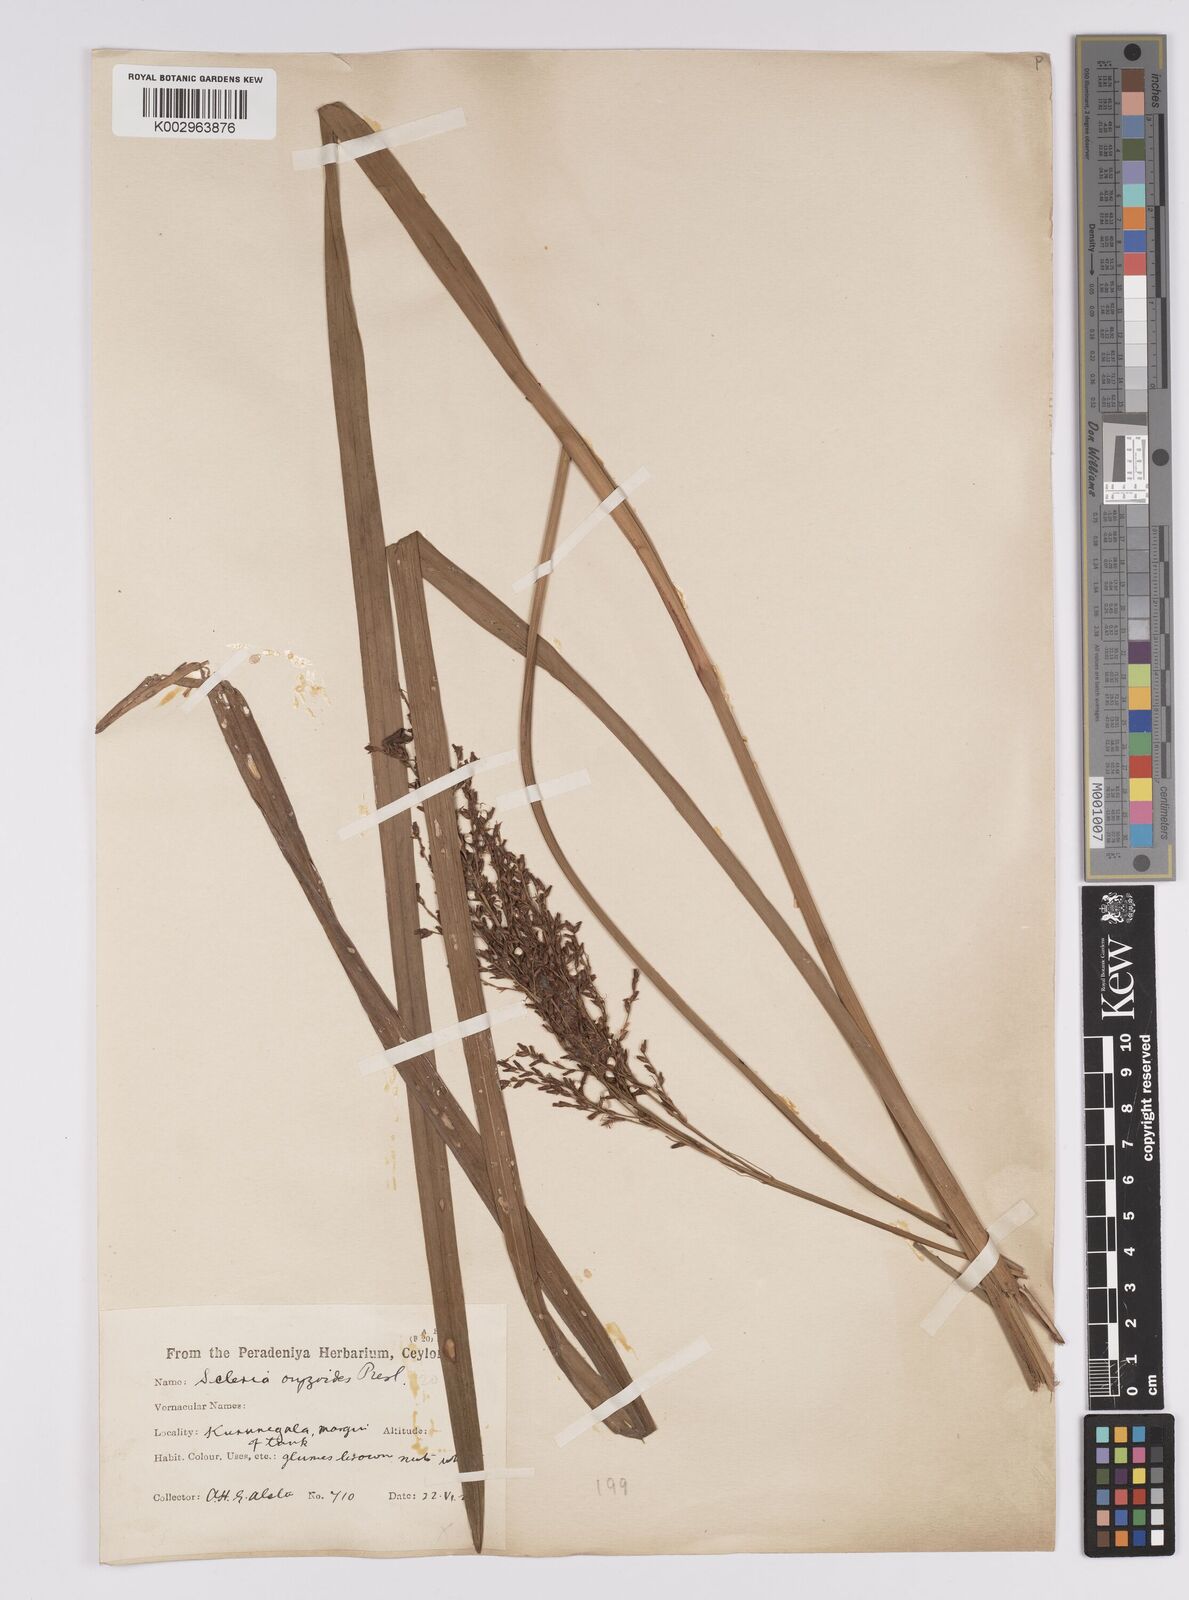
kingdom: Plantae
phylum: Tracheophyta
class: Liliopsida
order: Poales
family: Cyperaceae
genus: Scleria
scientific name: Scleria poiformis
